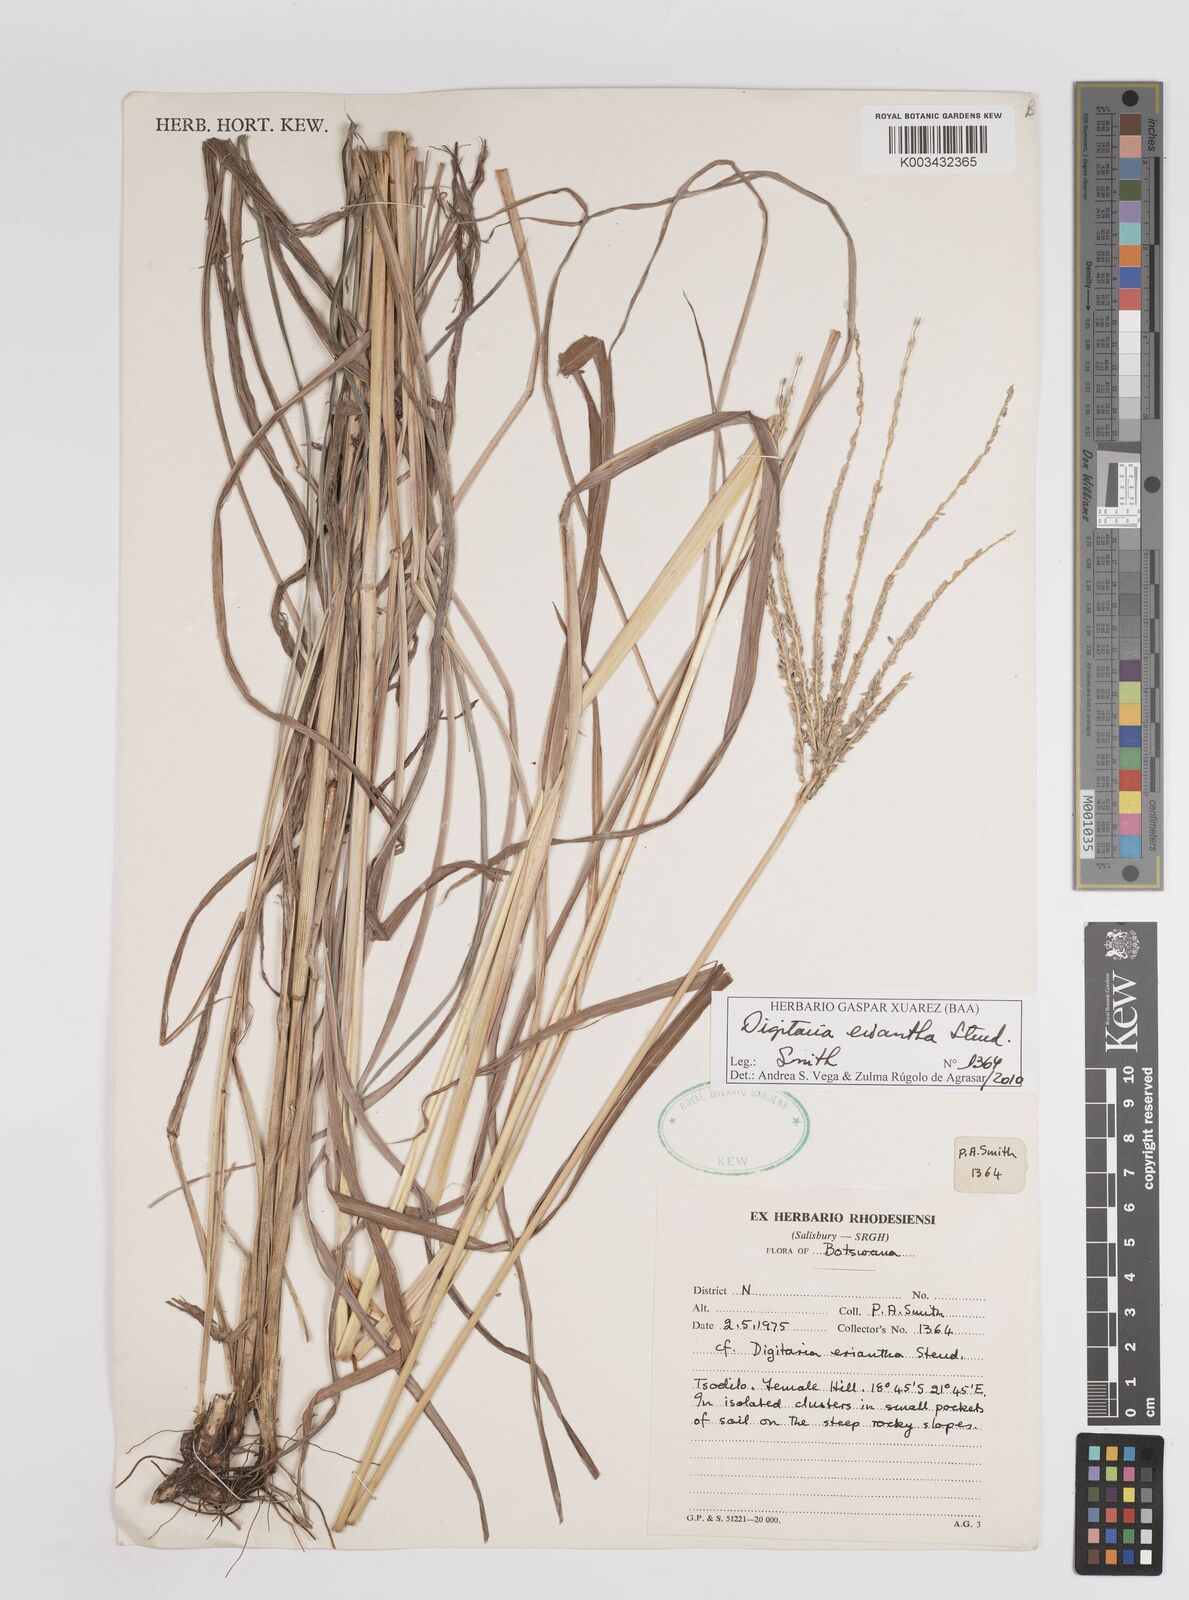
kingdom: Plantae
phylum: Tracheophyta
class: Liliopsida
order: Poales
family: Poaceae
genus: Digitaria
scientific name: Digitaria eriantha
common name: Digitgrass
